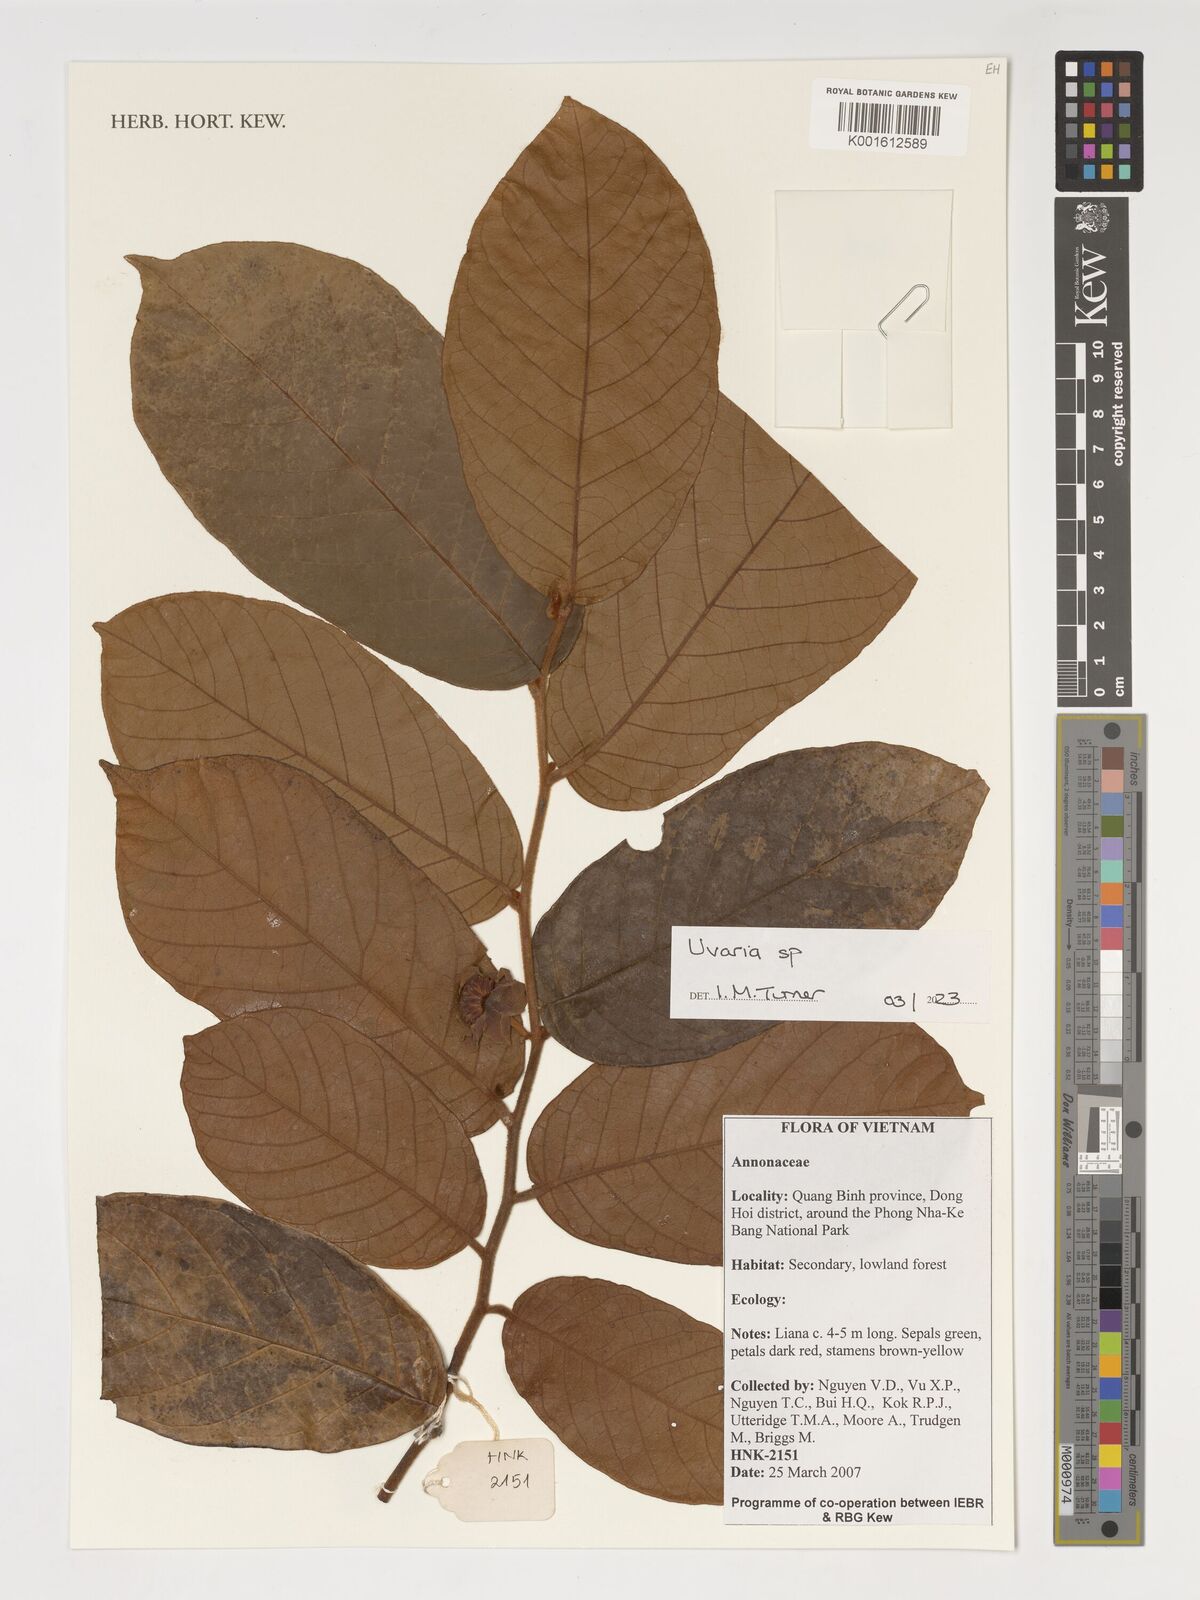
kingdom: Plantae
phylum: Tracheophyta
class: Magnoliopsida
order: Magnoliales
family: Annonaceae
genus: Uvaria
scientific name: Uvaria
